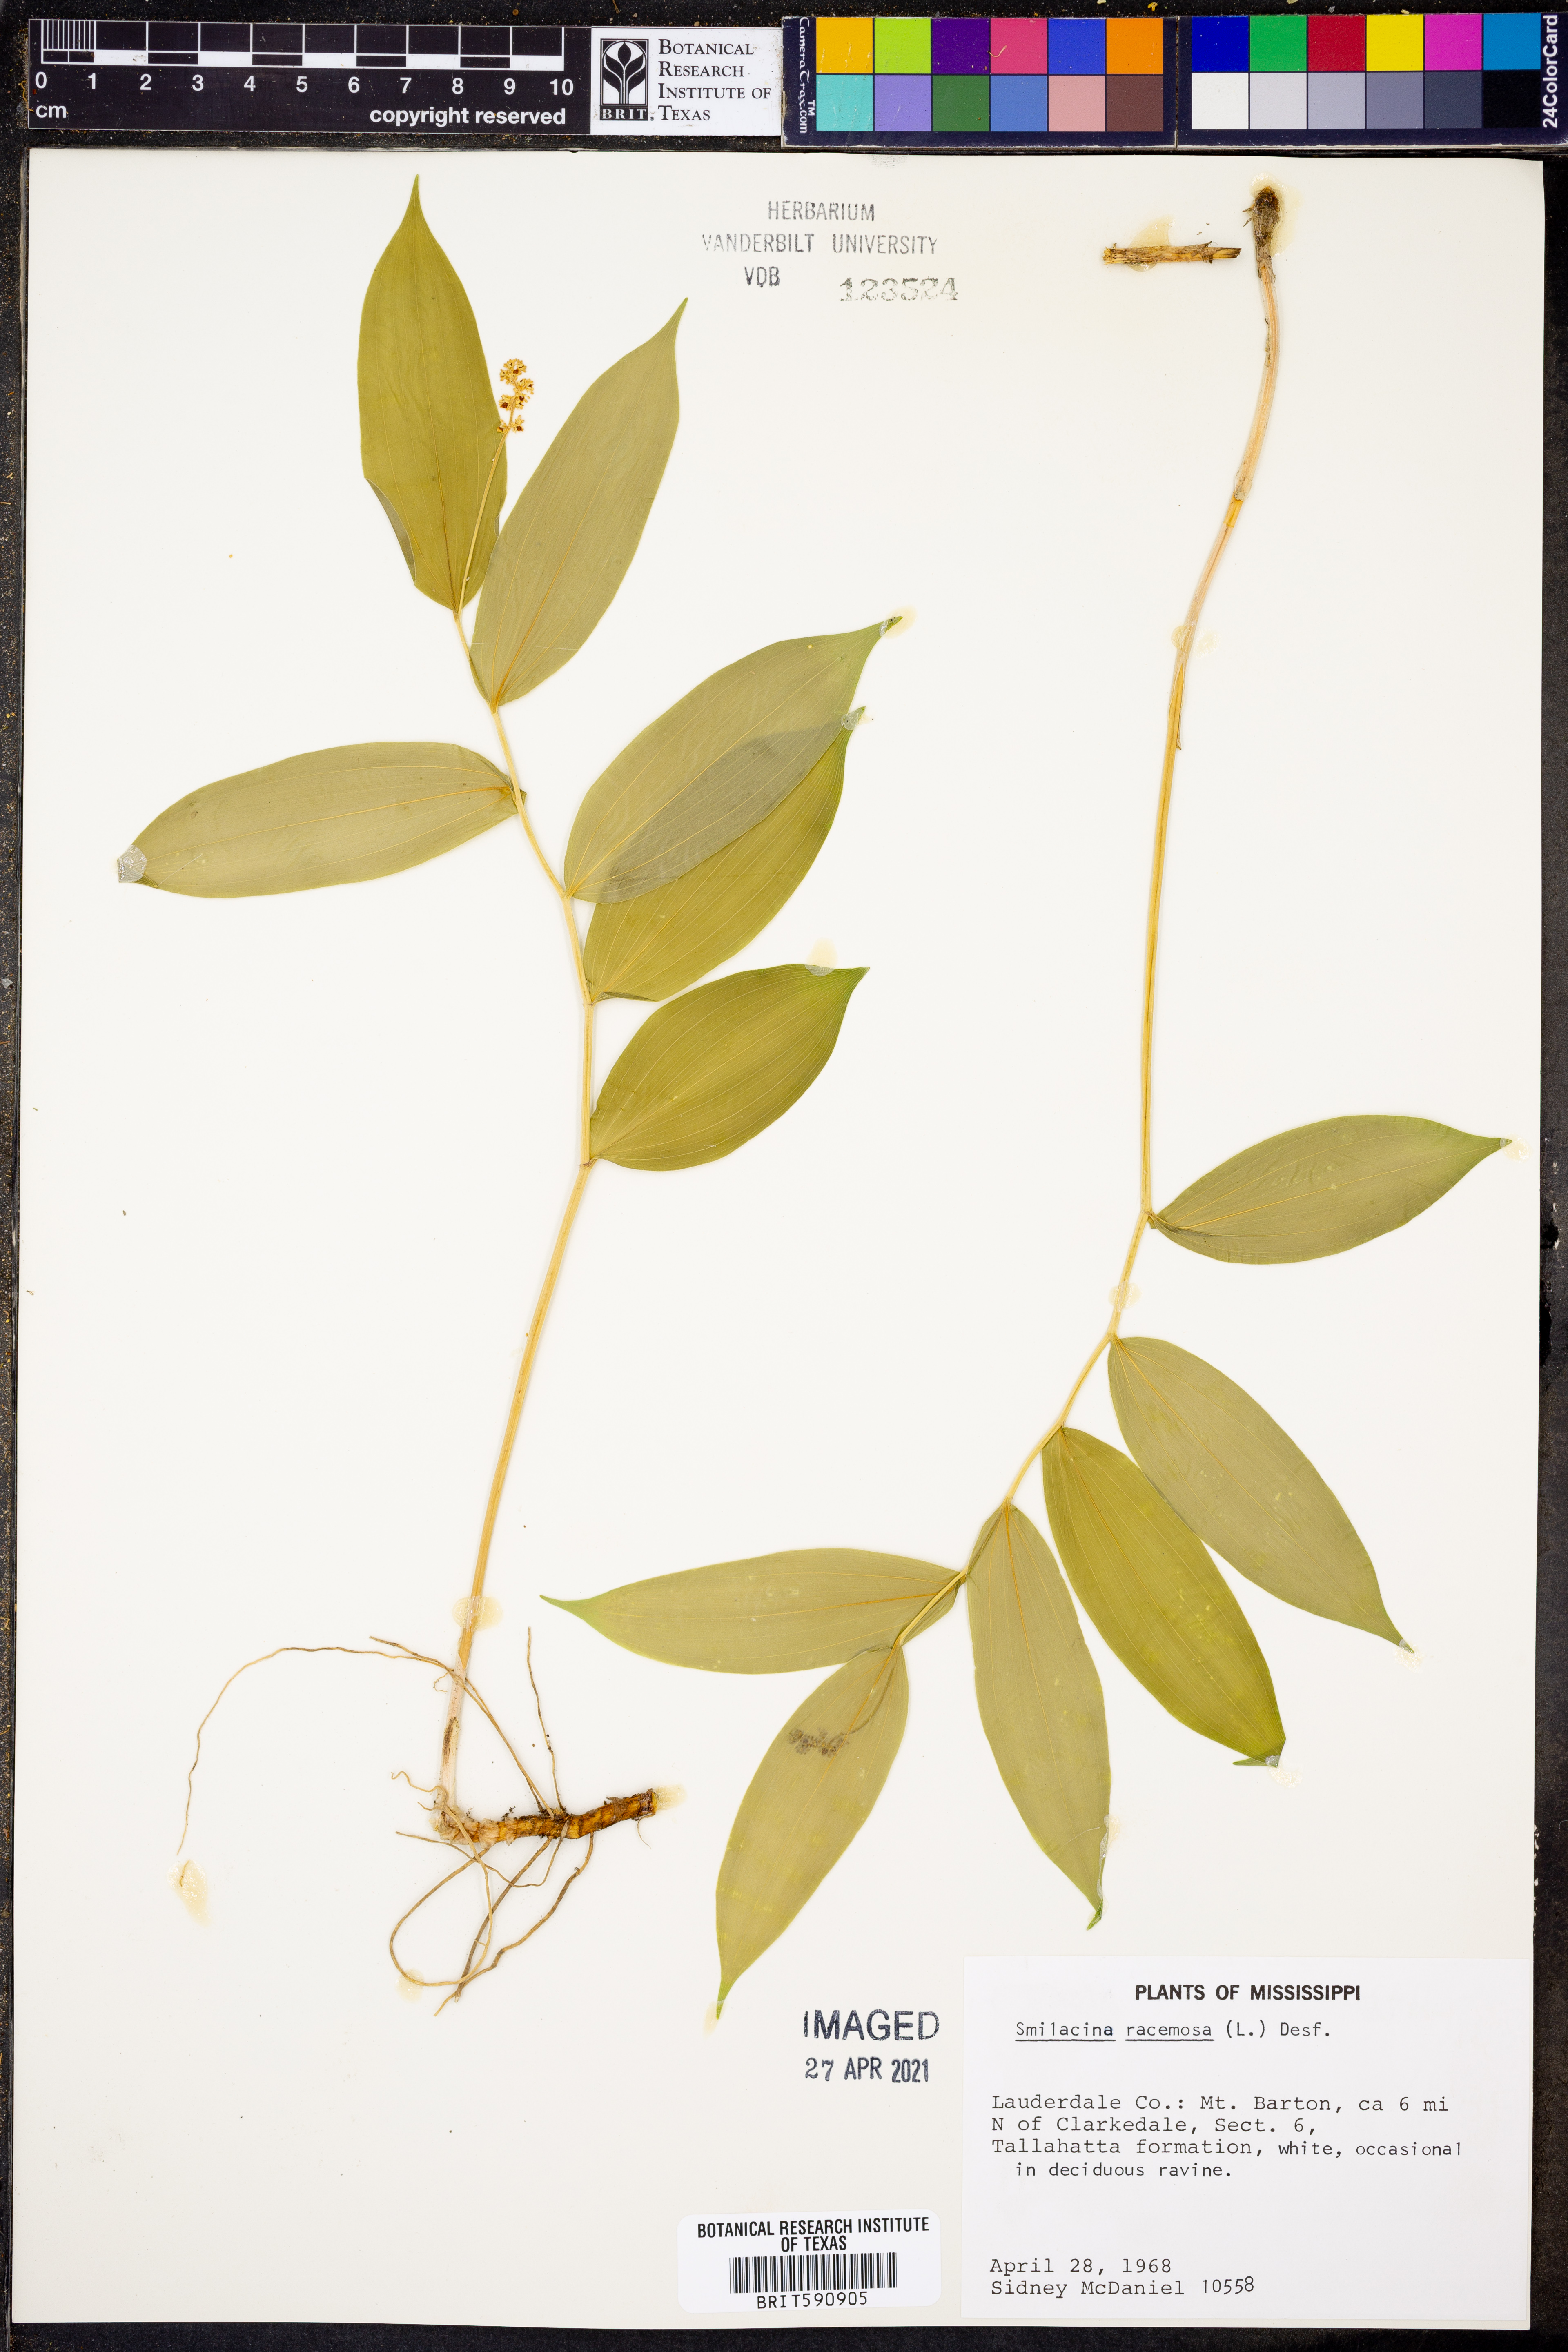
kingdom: Plantae
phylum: Tracheophyta
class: Liliopsida
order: Asparagales
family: Asparagaceae
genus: Maianthemum
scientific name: Maianthemum racemosum
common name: False spikenard
